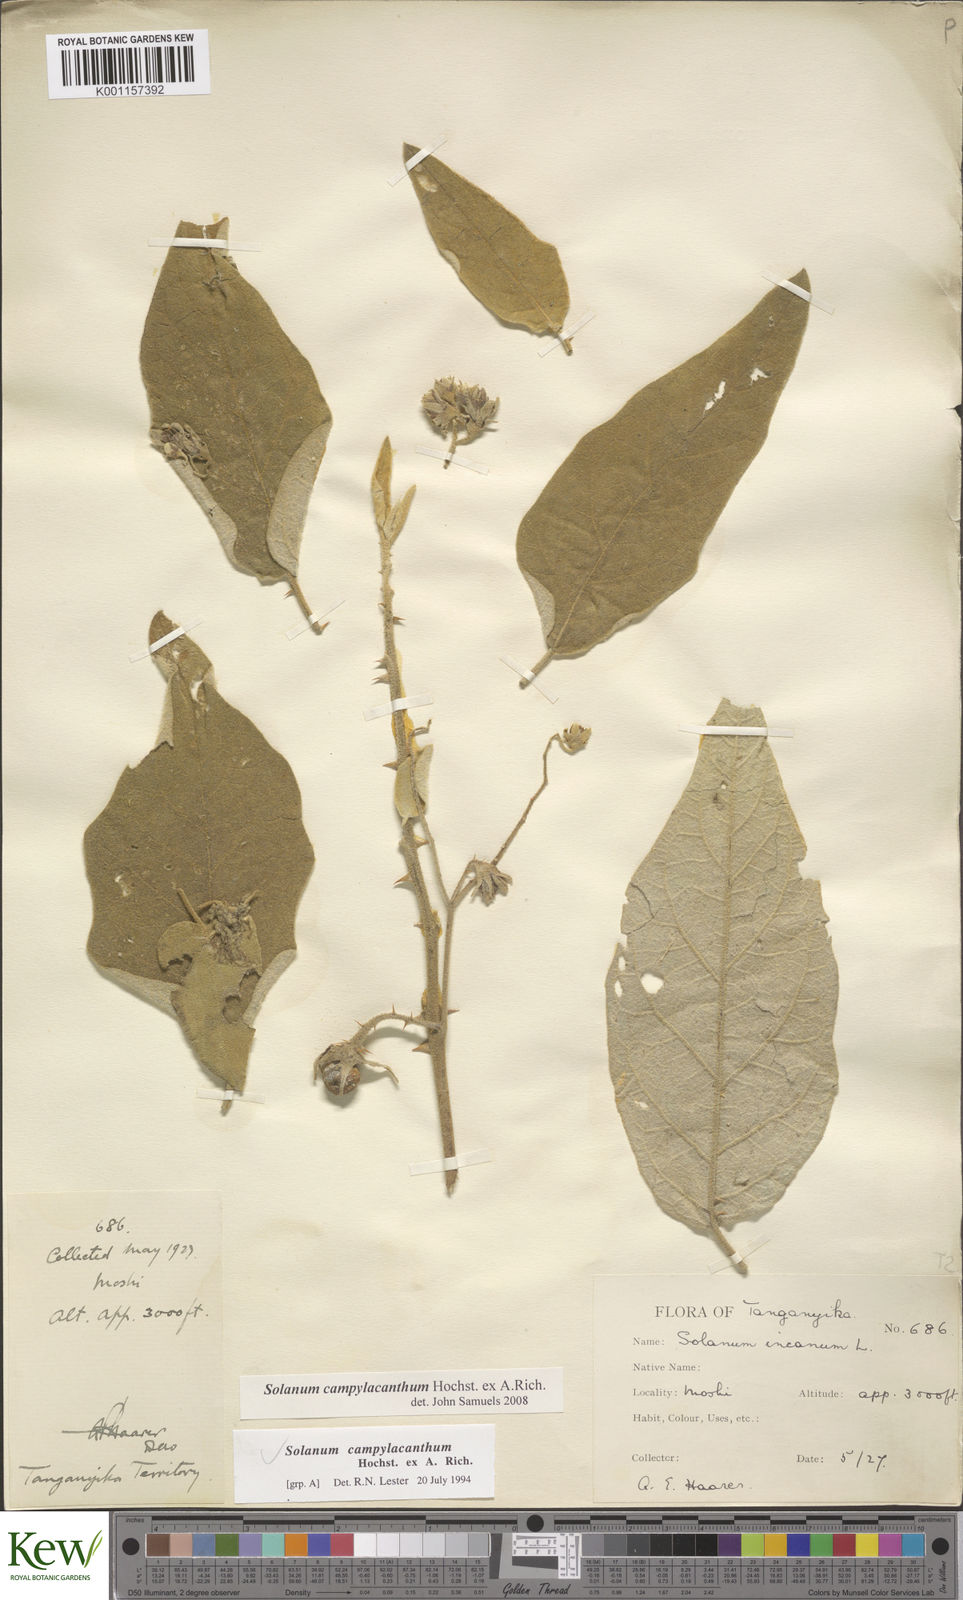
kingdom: Plantae
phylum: Tracheophyta
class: Magnoliopsida
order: Solanales
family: Solanaceae
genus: Solanum
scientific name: Solanum campylacanthum
